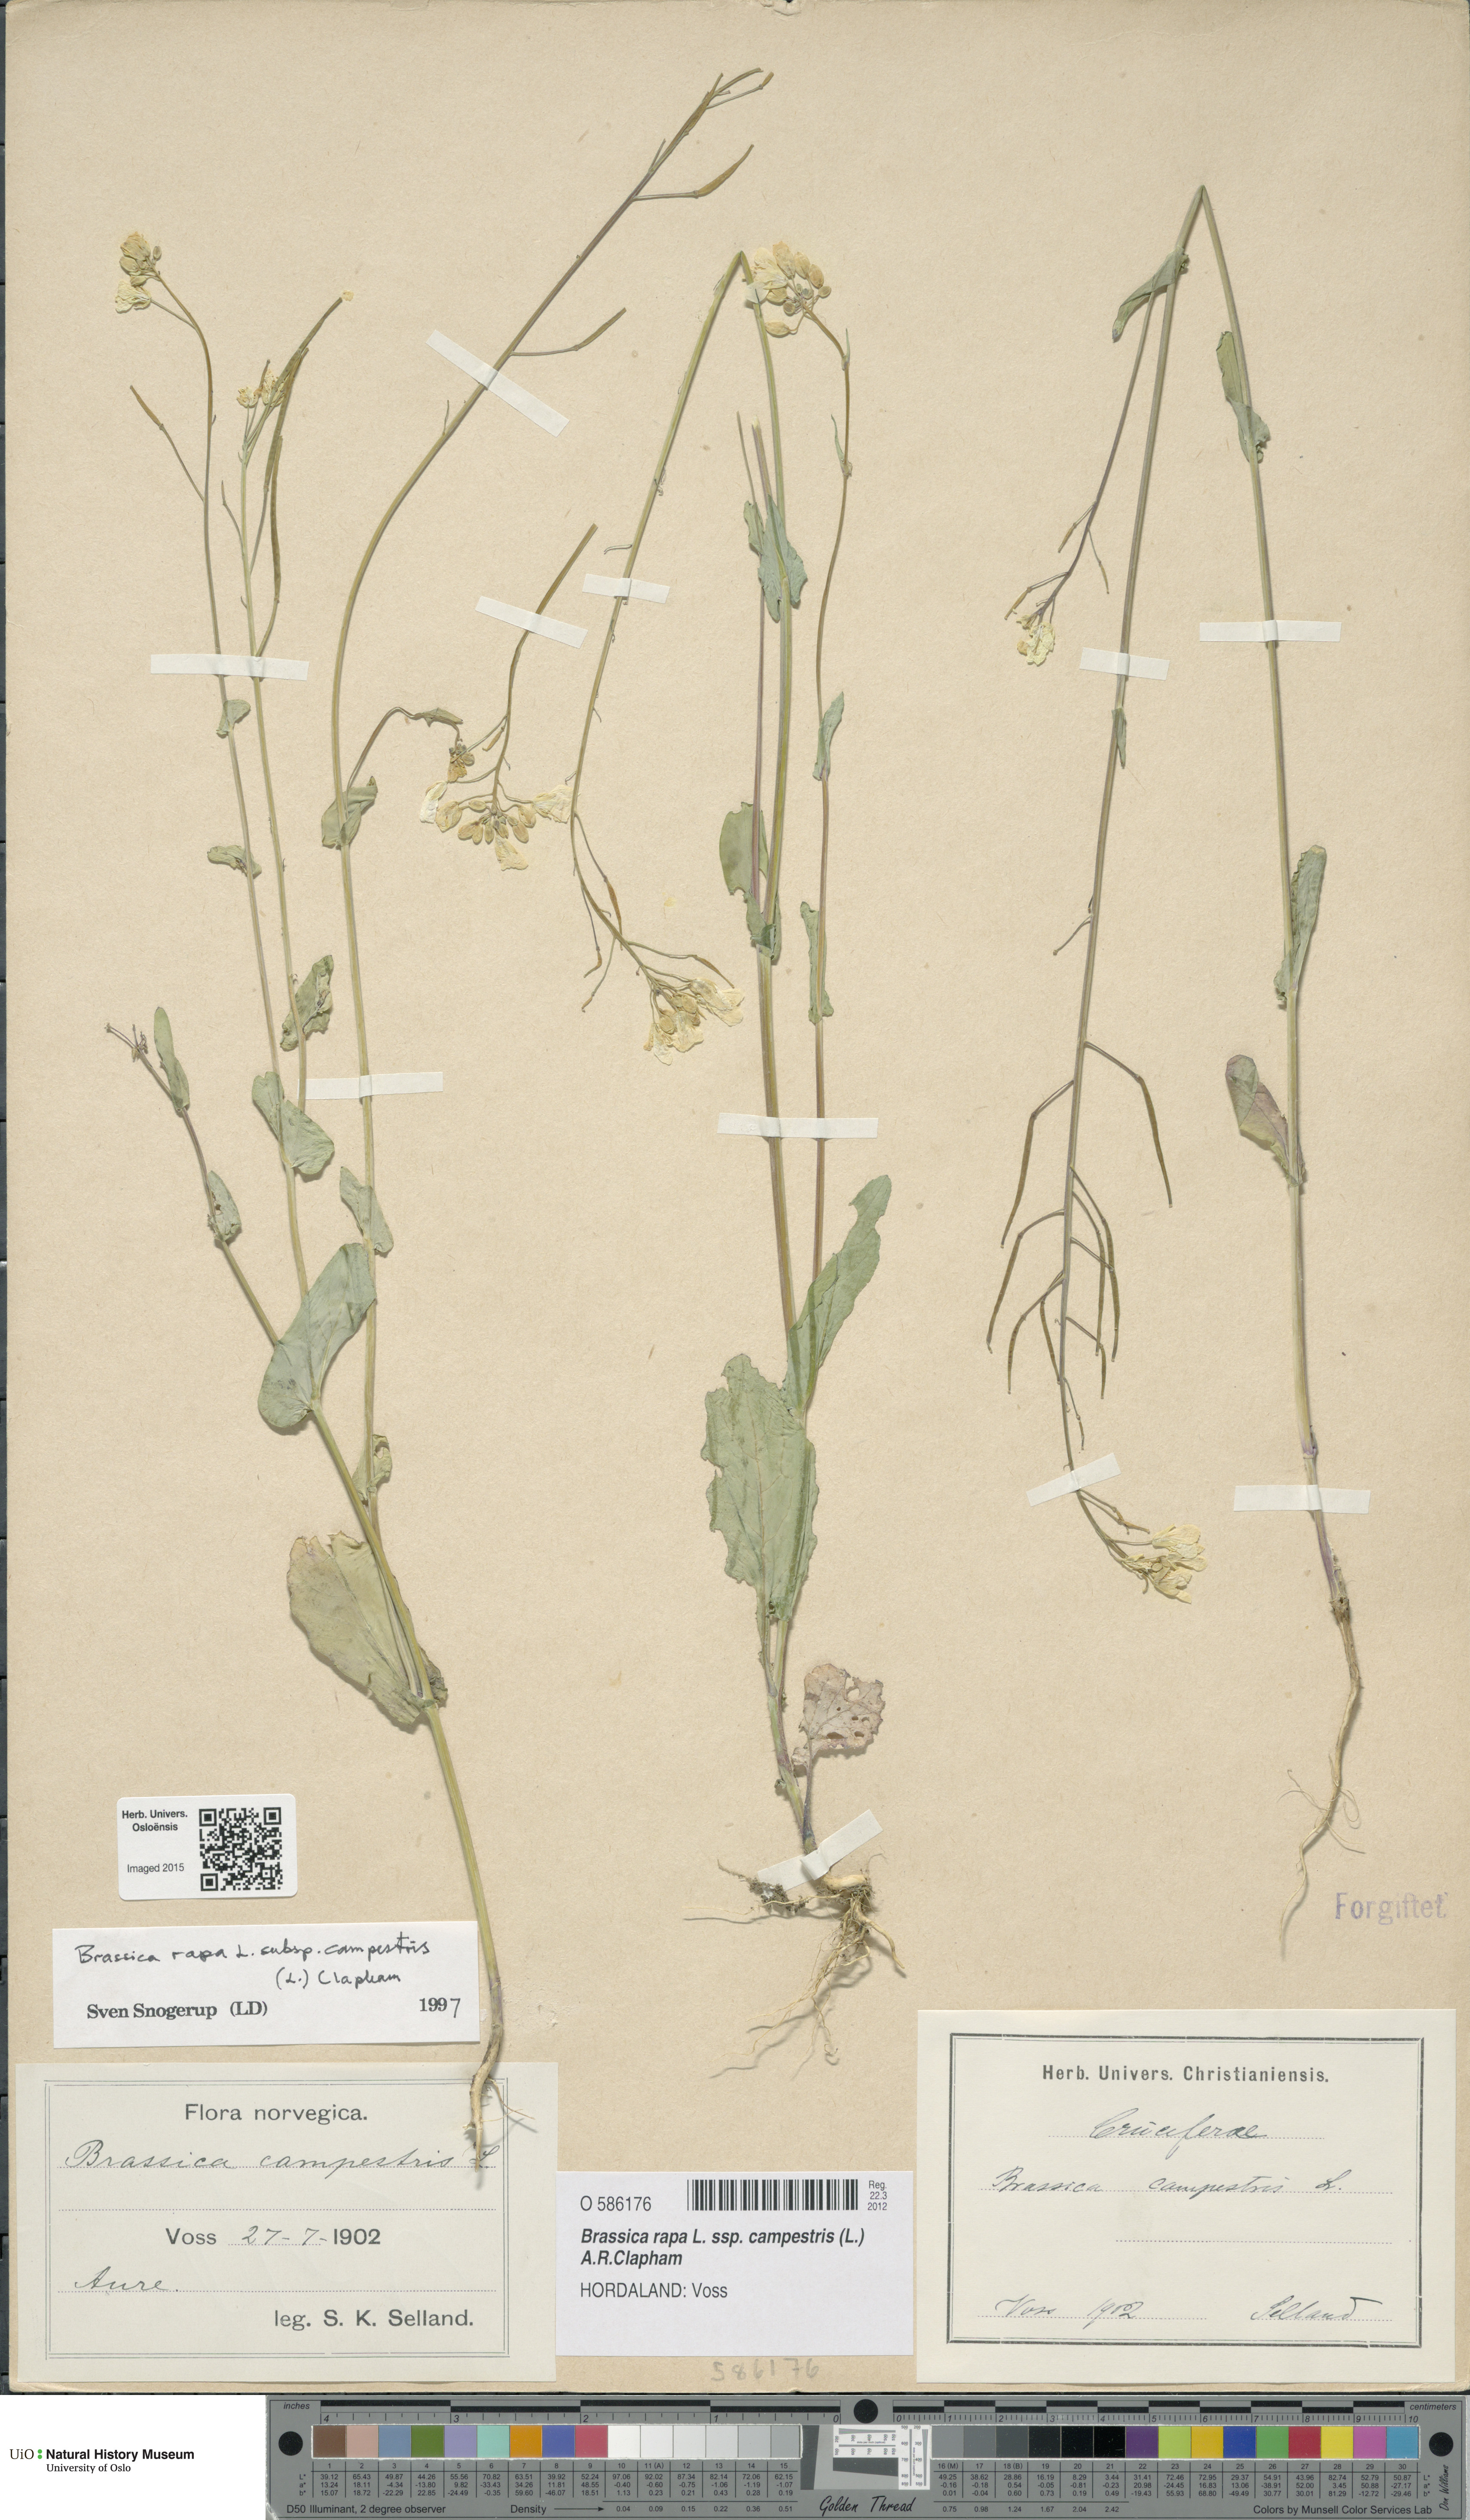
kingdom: Plantae
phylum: Tracheophyta
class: Magnoliopsida
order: Brassicales
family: Brassicaceae
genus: Brassica
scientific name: Brassica rapa
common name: Field mustard
